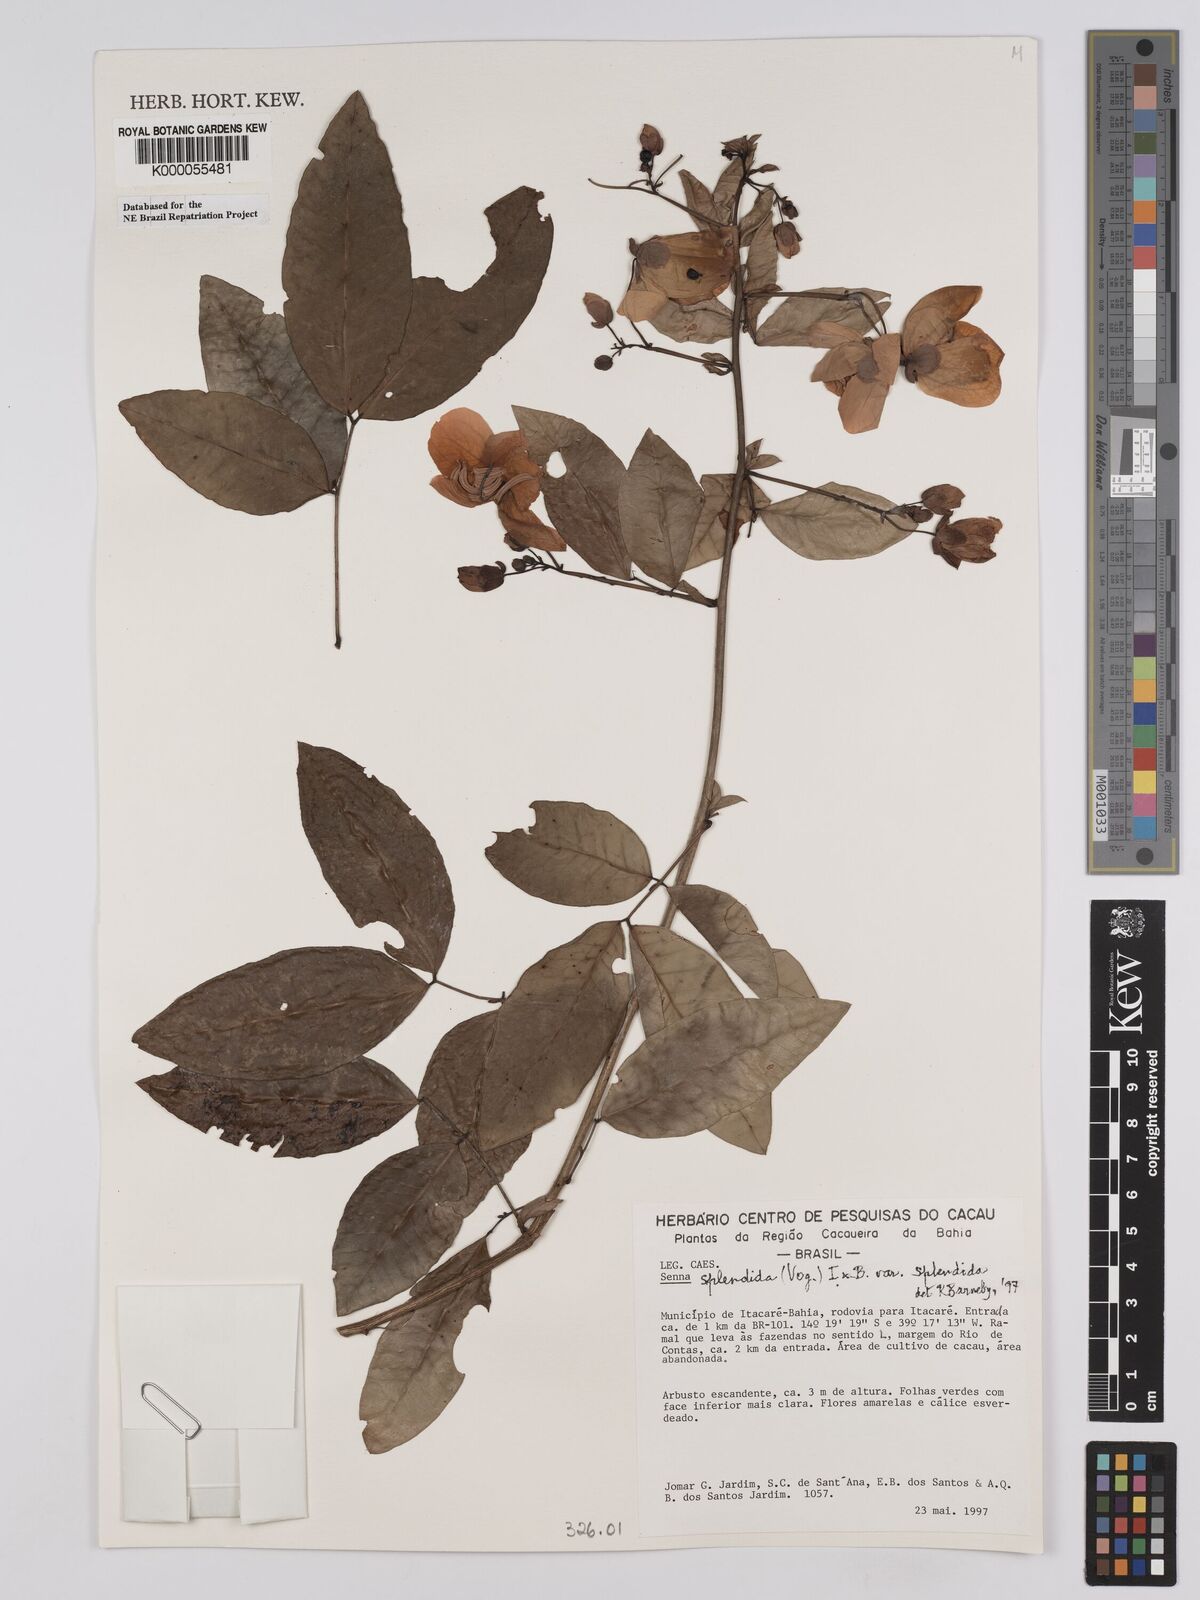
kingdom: Plantae
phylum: Tracheophyta
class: Magnoliopsida
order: Fabales
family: Fabaceae
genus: Senna
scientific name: Senna splendida
